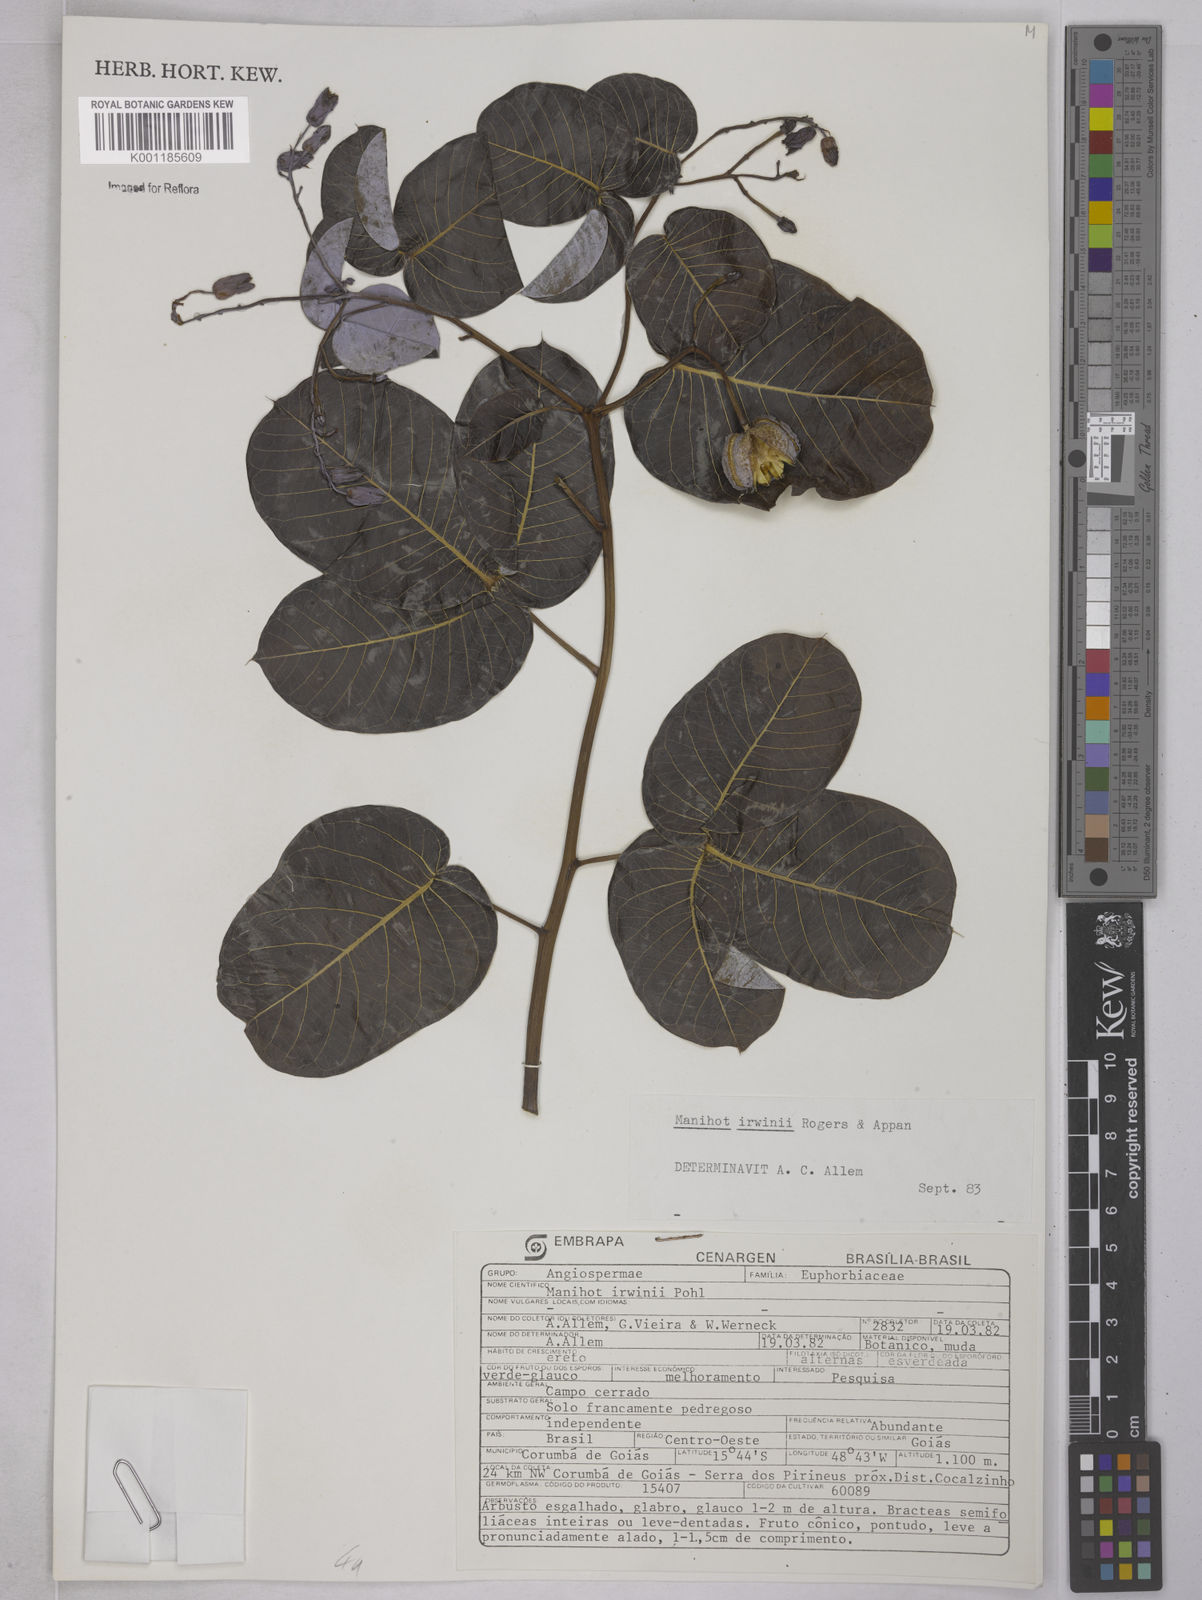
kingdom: Plantae
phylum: Tracheophyta
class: Magnoliopsida
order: Malpighiales
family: Euphorbiaceae
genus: Manihot
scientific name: Manihot irwinii
